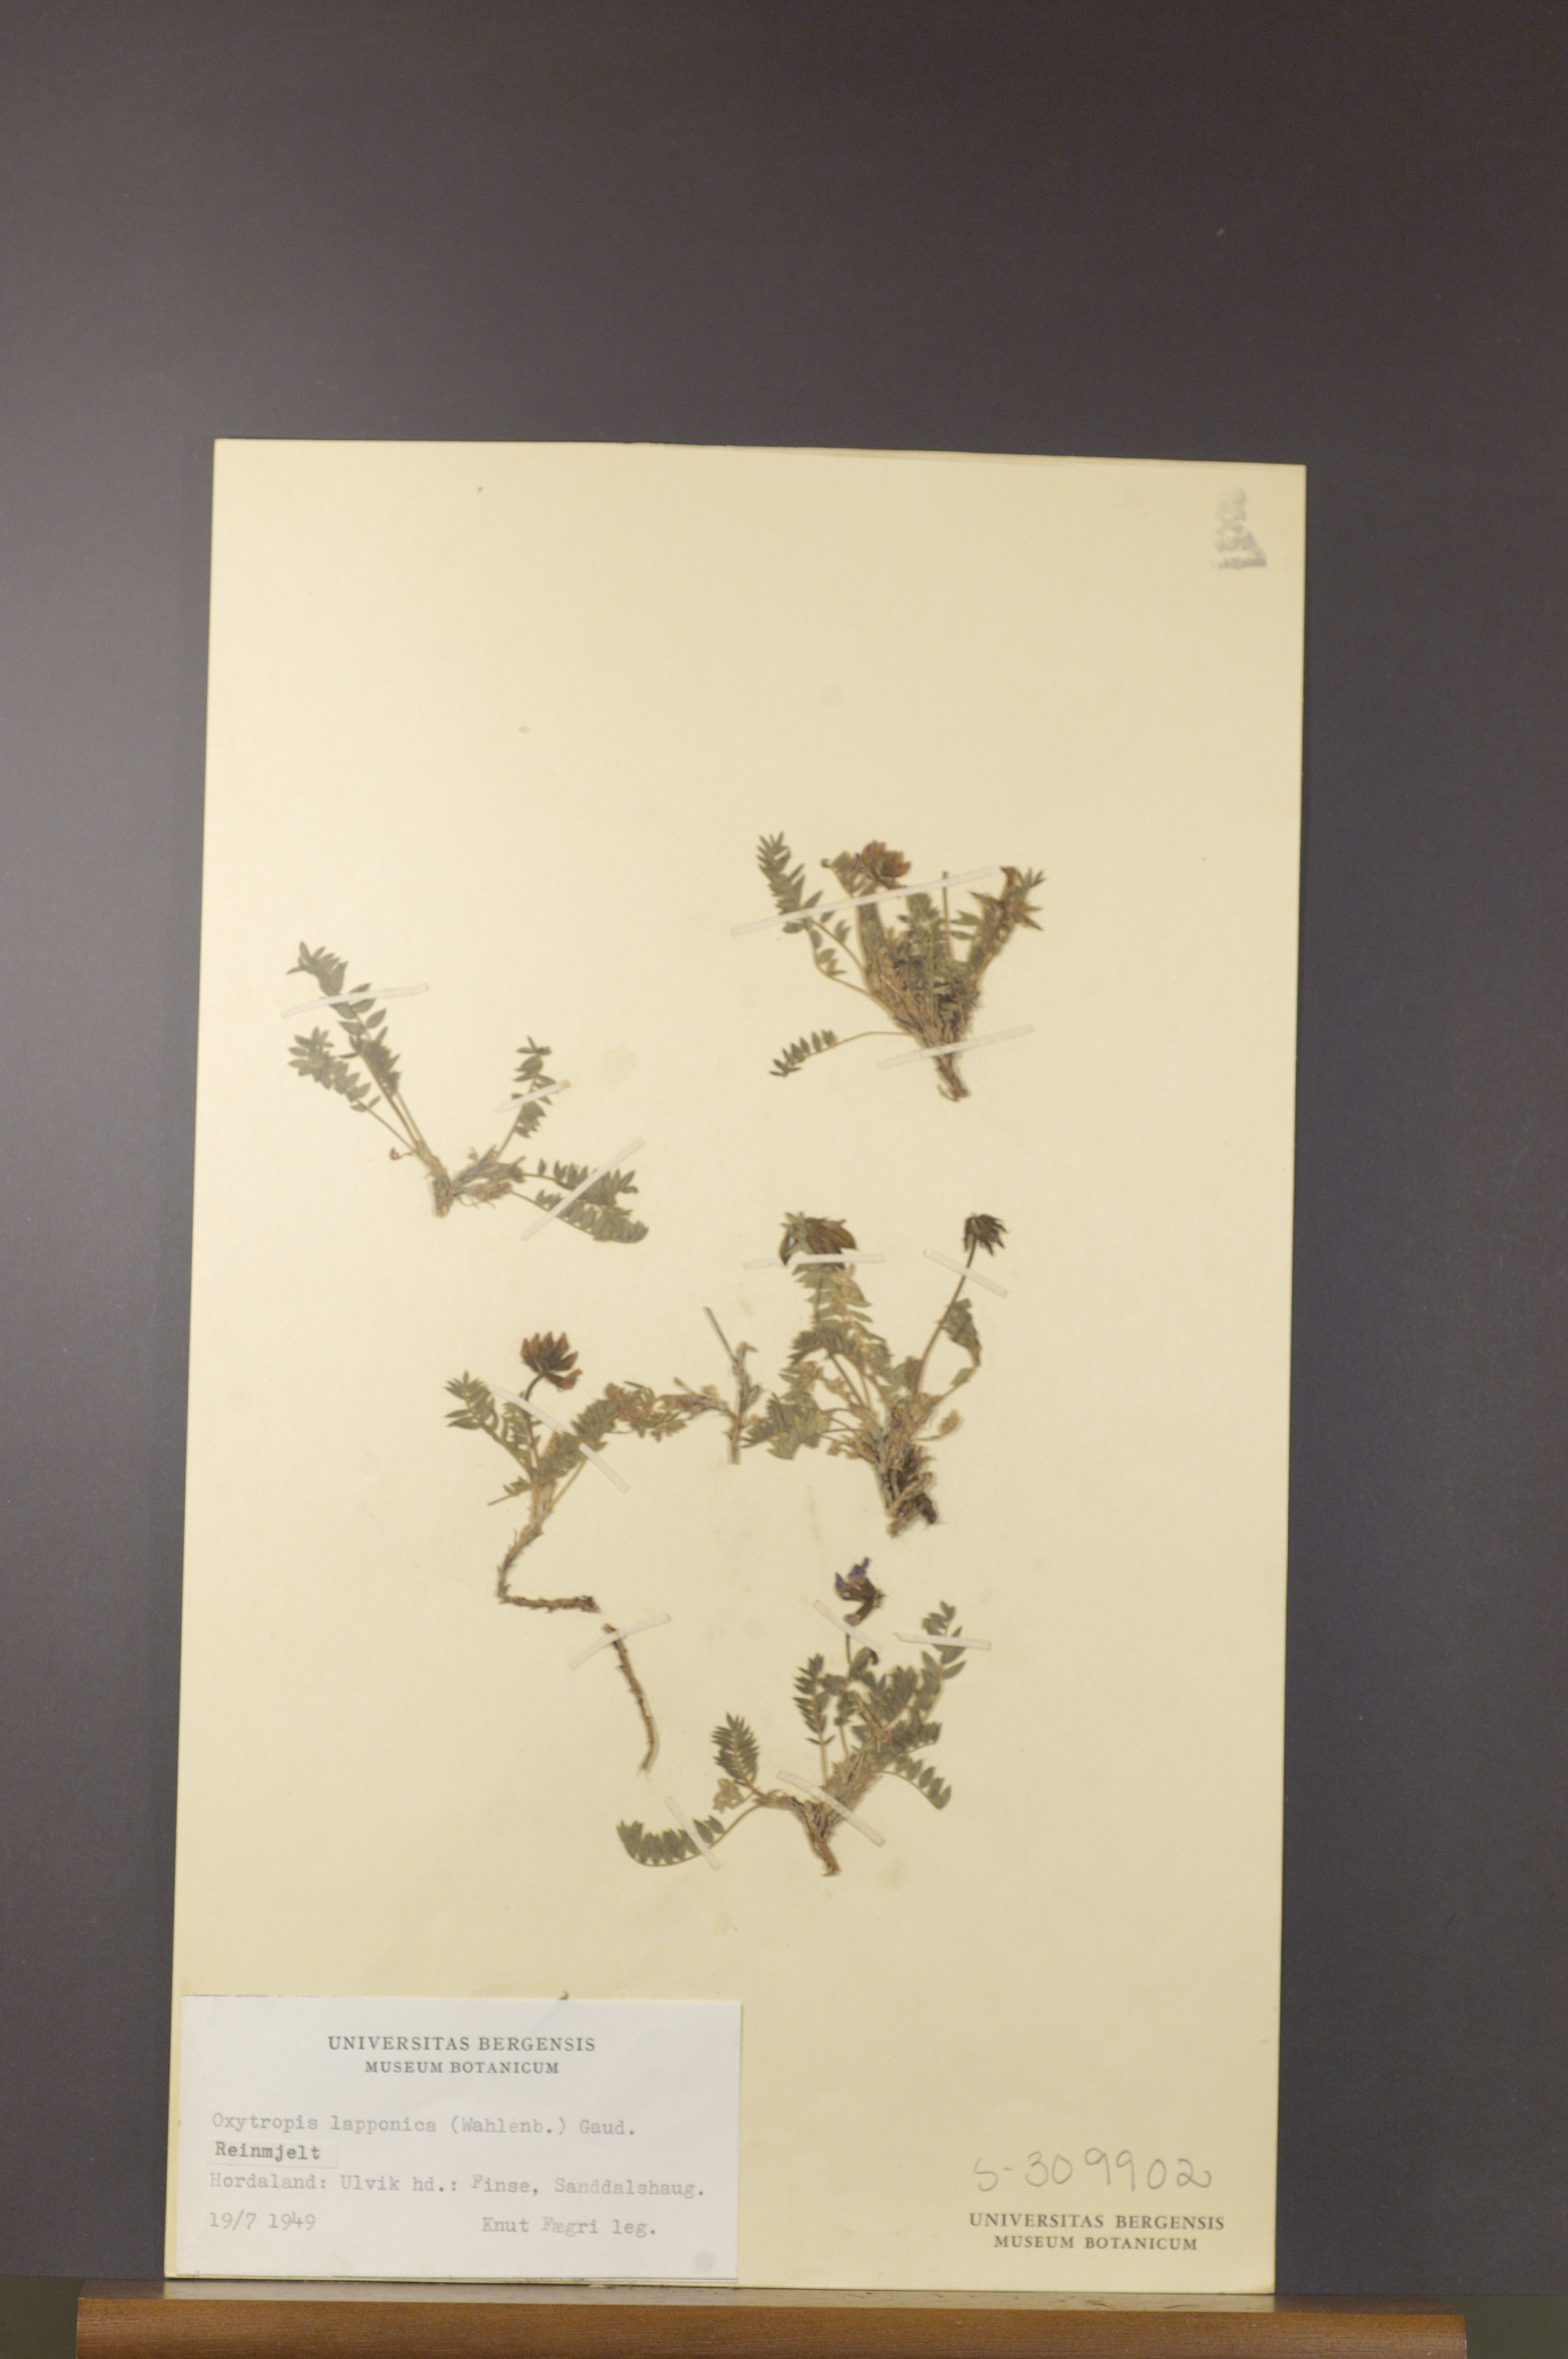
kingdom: Plantae
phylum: Tracheophyta
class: Magnoliopsida
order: Fabales
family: Fabaceae
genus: Oxytropis
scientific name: Oxytropis lapponica
